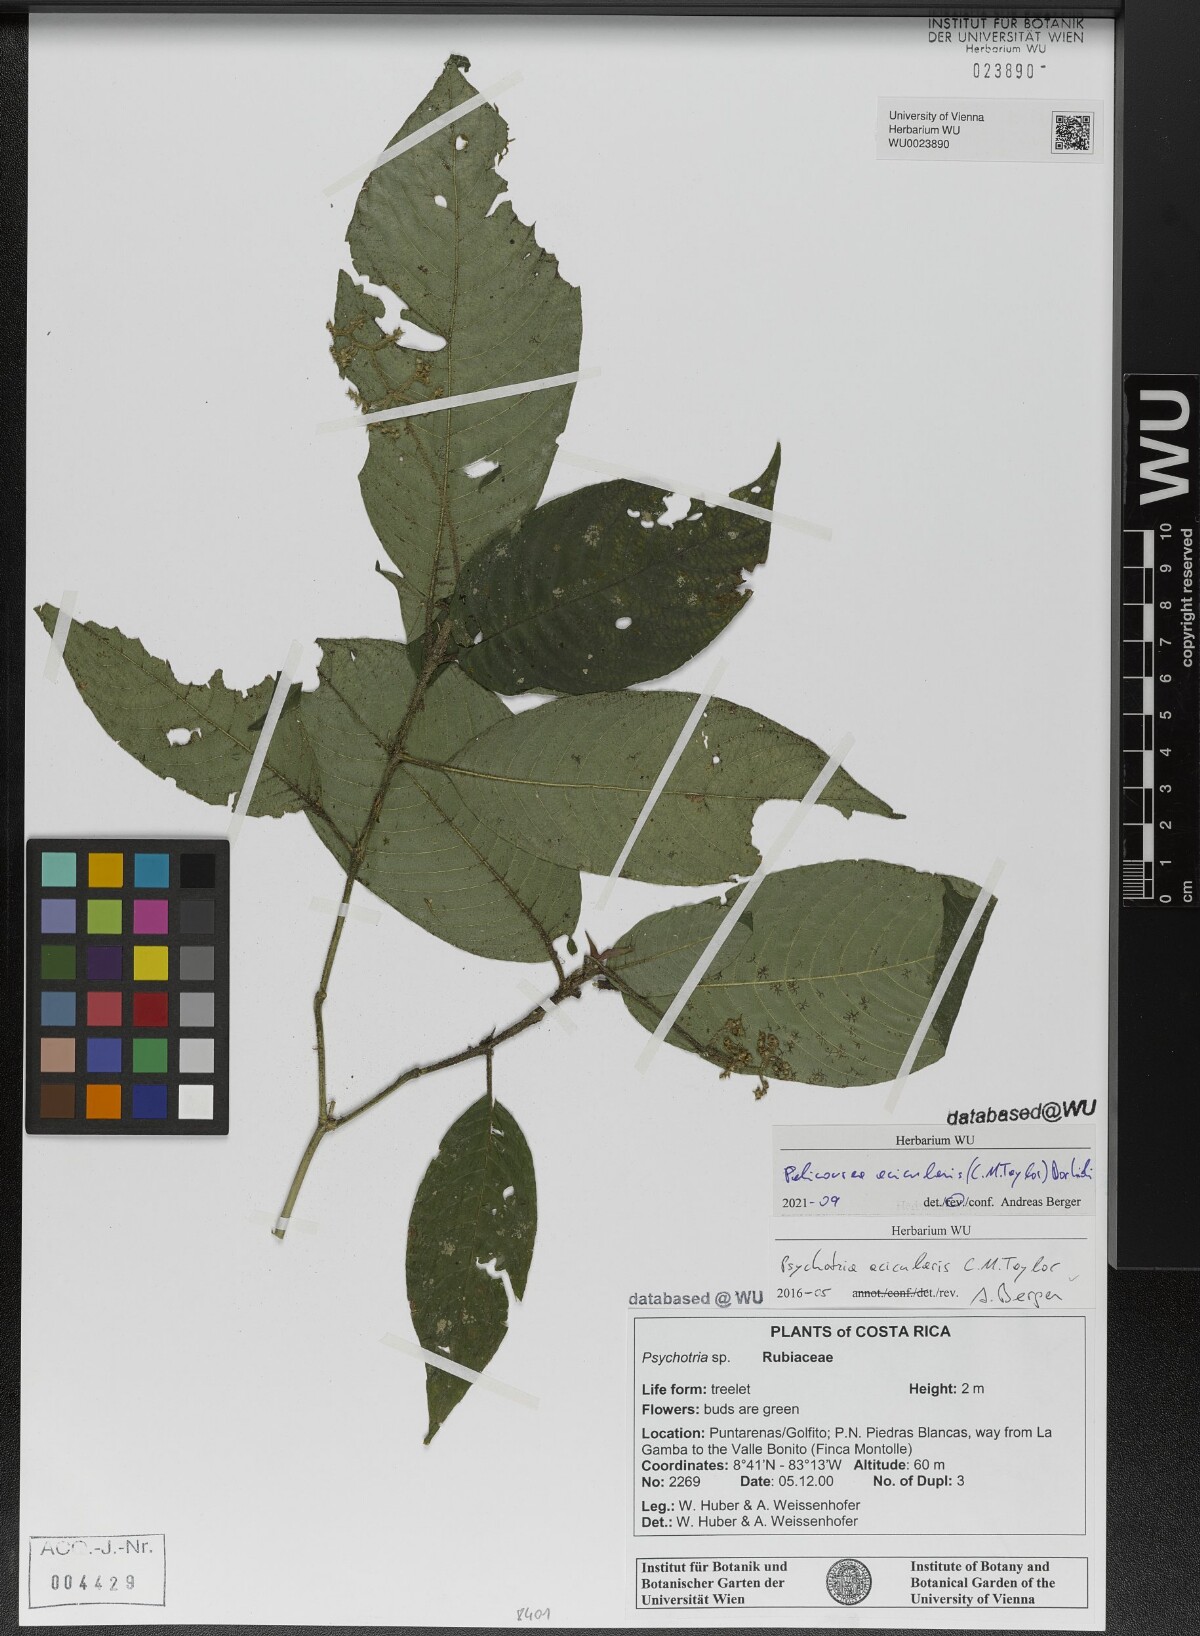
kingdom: Plantae
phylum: Tracheophyta
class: Magnoliopsida
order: Gentianales
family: Rubiaceae
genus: Palicourea
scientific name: Palicourea acicularis
